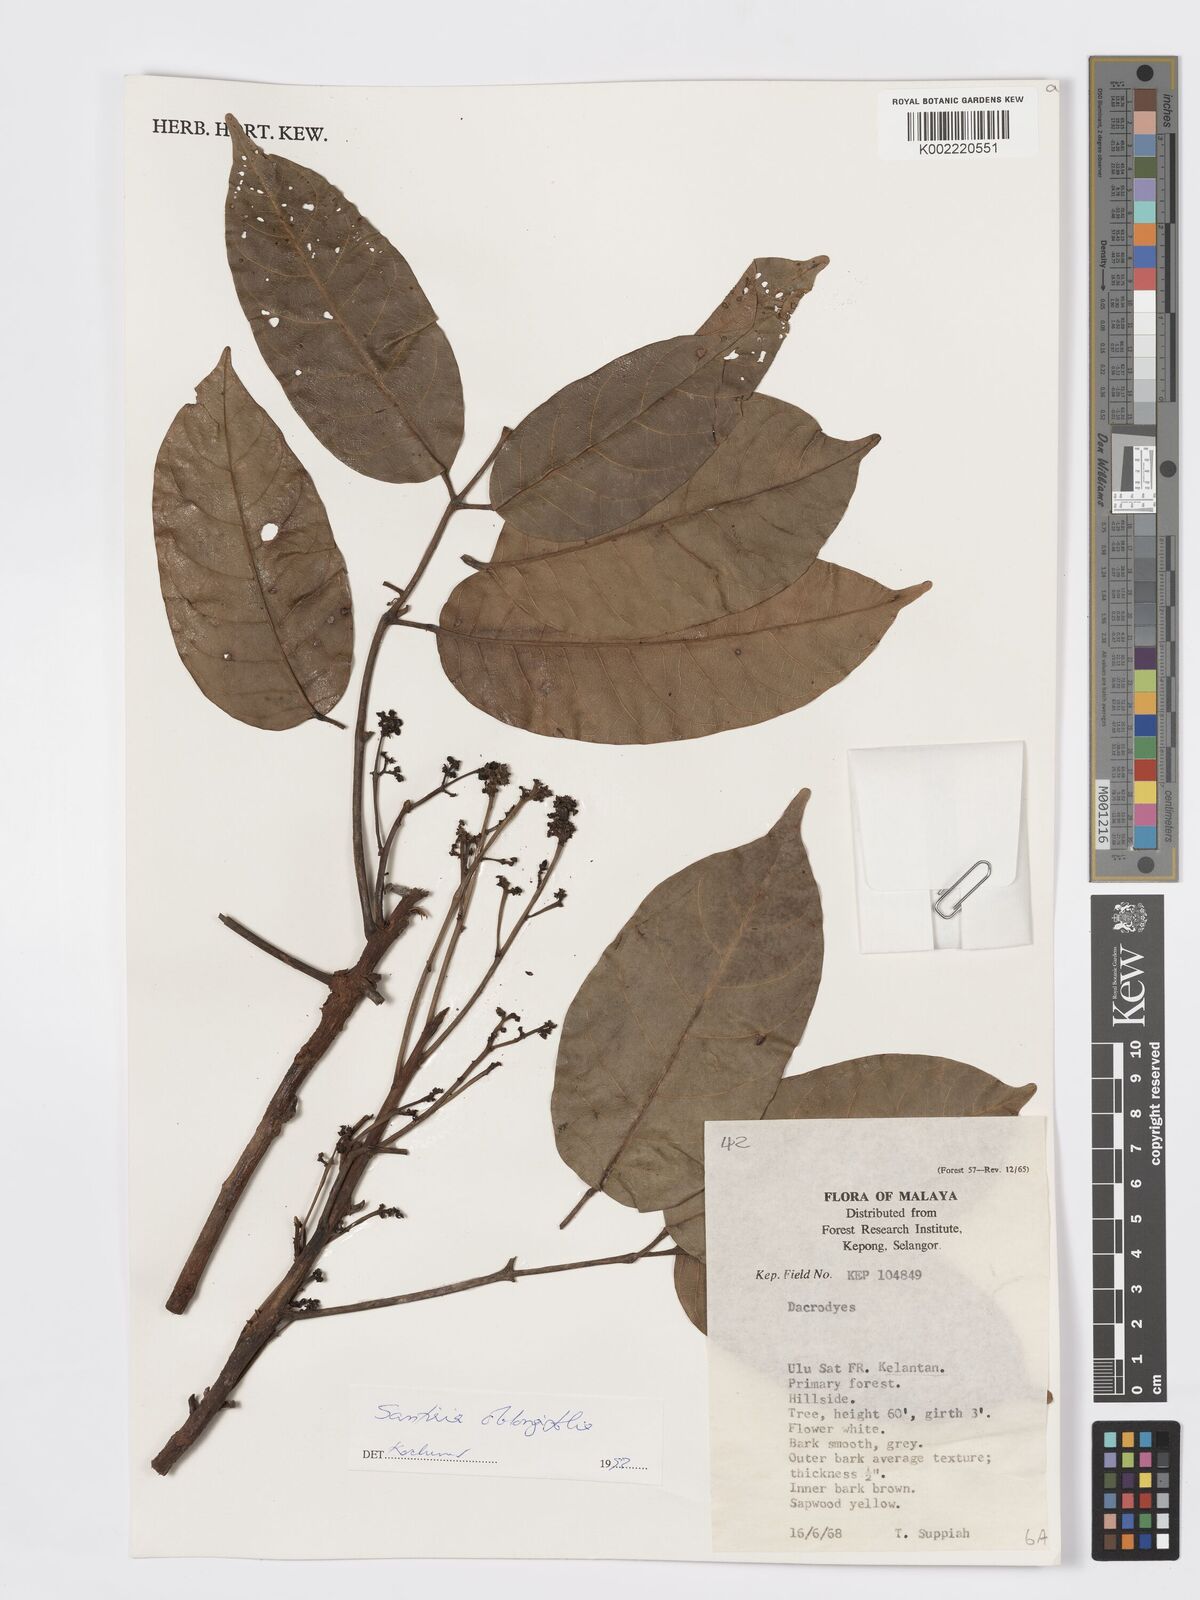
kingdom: Plantae
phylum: Tracheophyta
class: Magnoliopsida
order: Sapindales
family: Burseraceae
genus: Santiria
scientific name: Santiria oblongifolia
